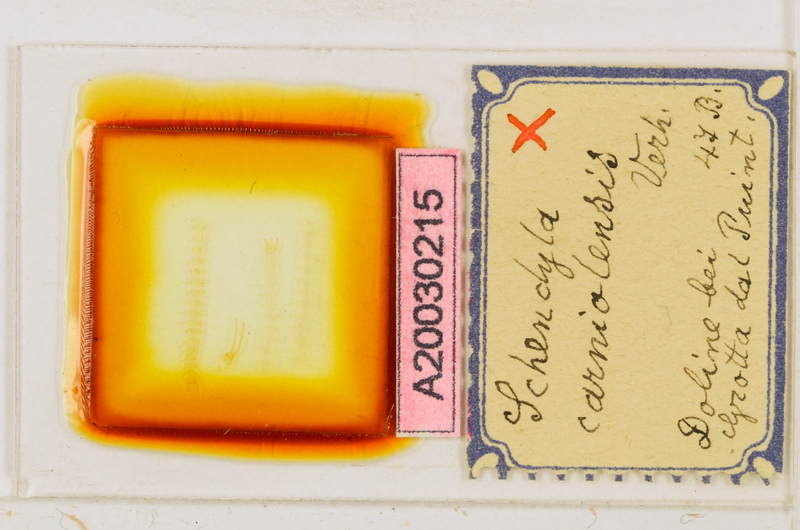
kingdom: Animalia
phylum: Arthropoda
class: Chilopoda
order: Geophilomorpha
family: Schendylidae
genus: Schendyla
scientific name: Schendyla carniolensis
